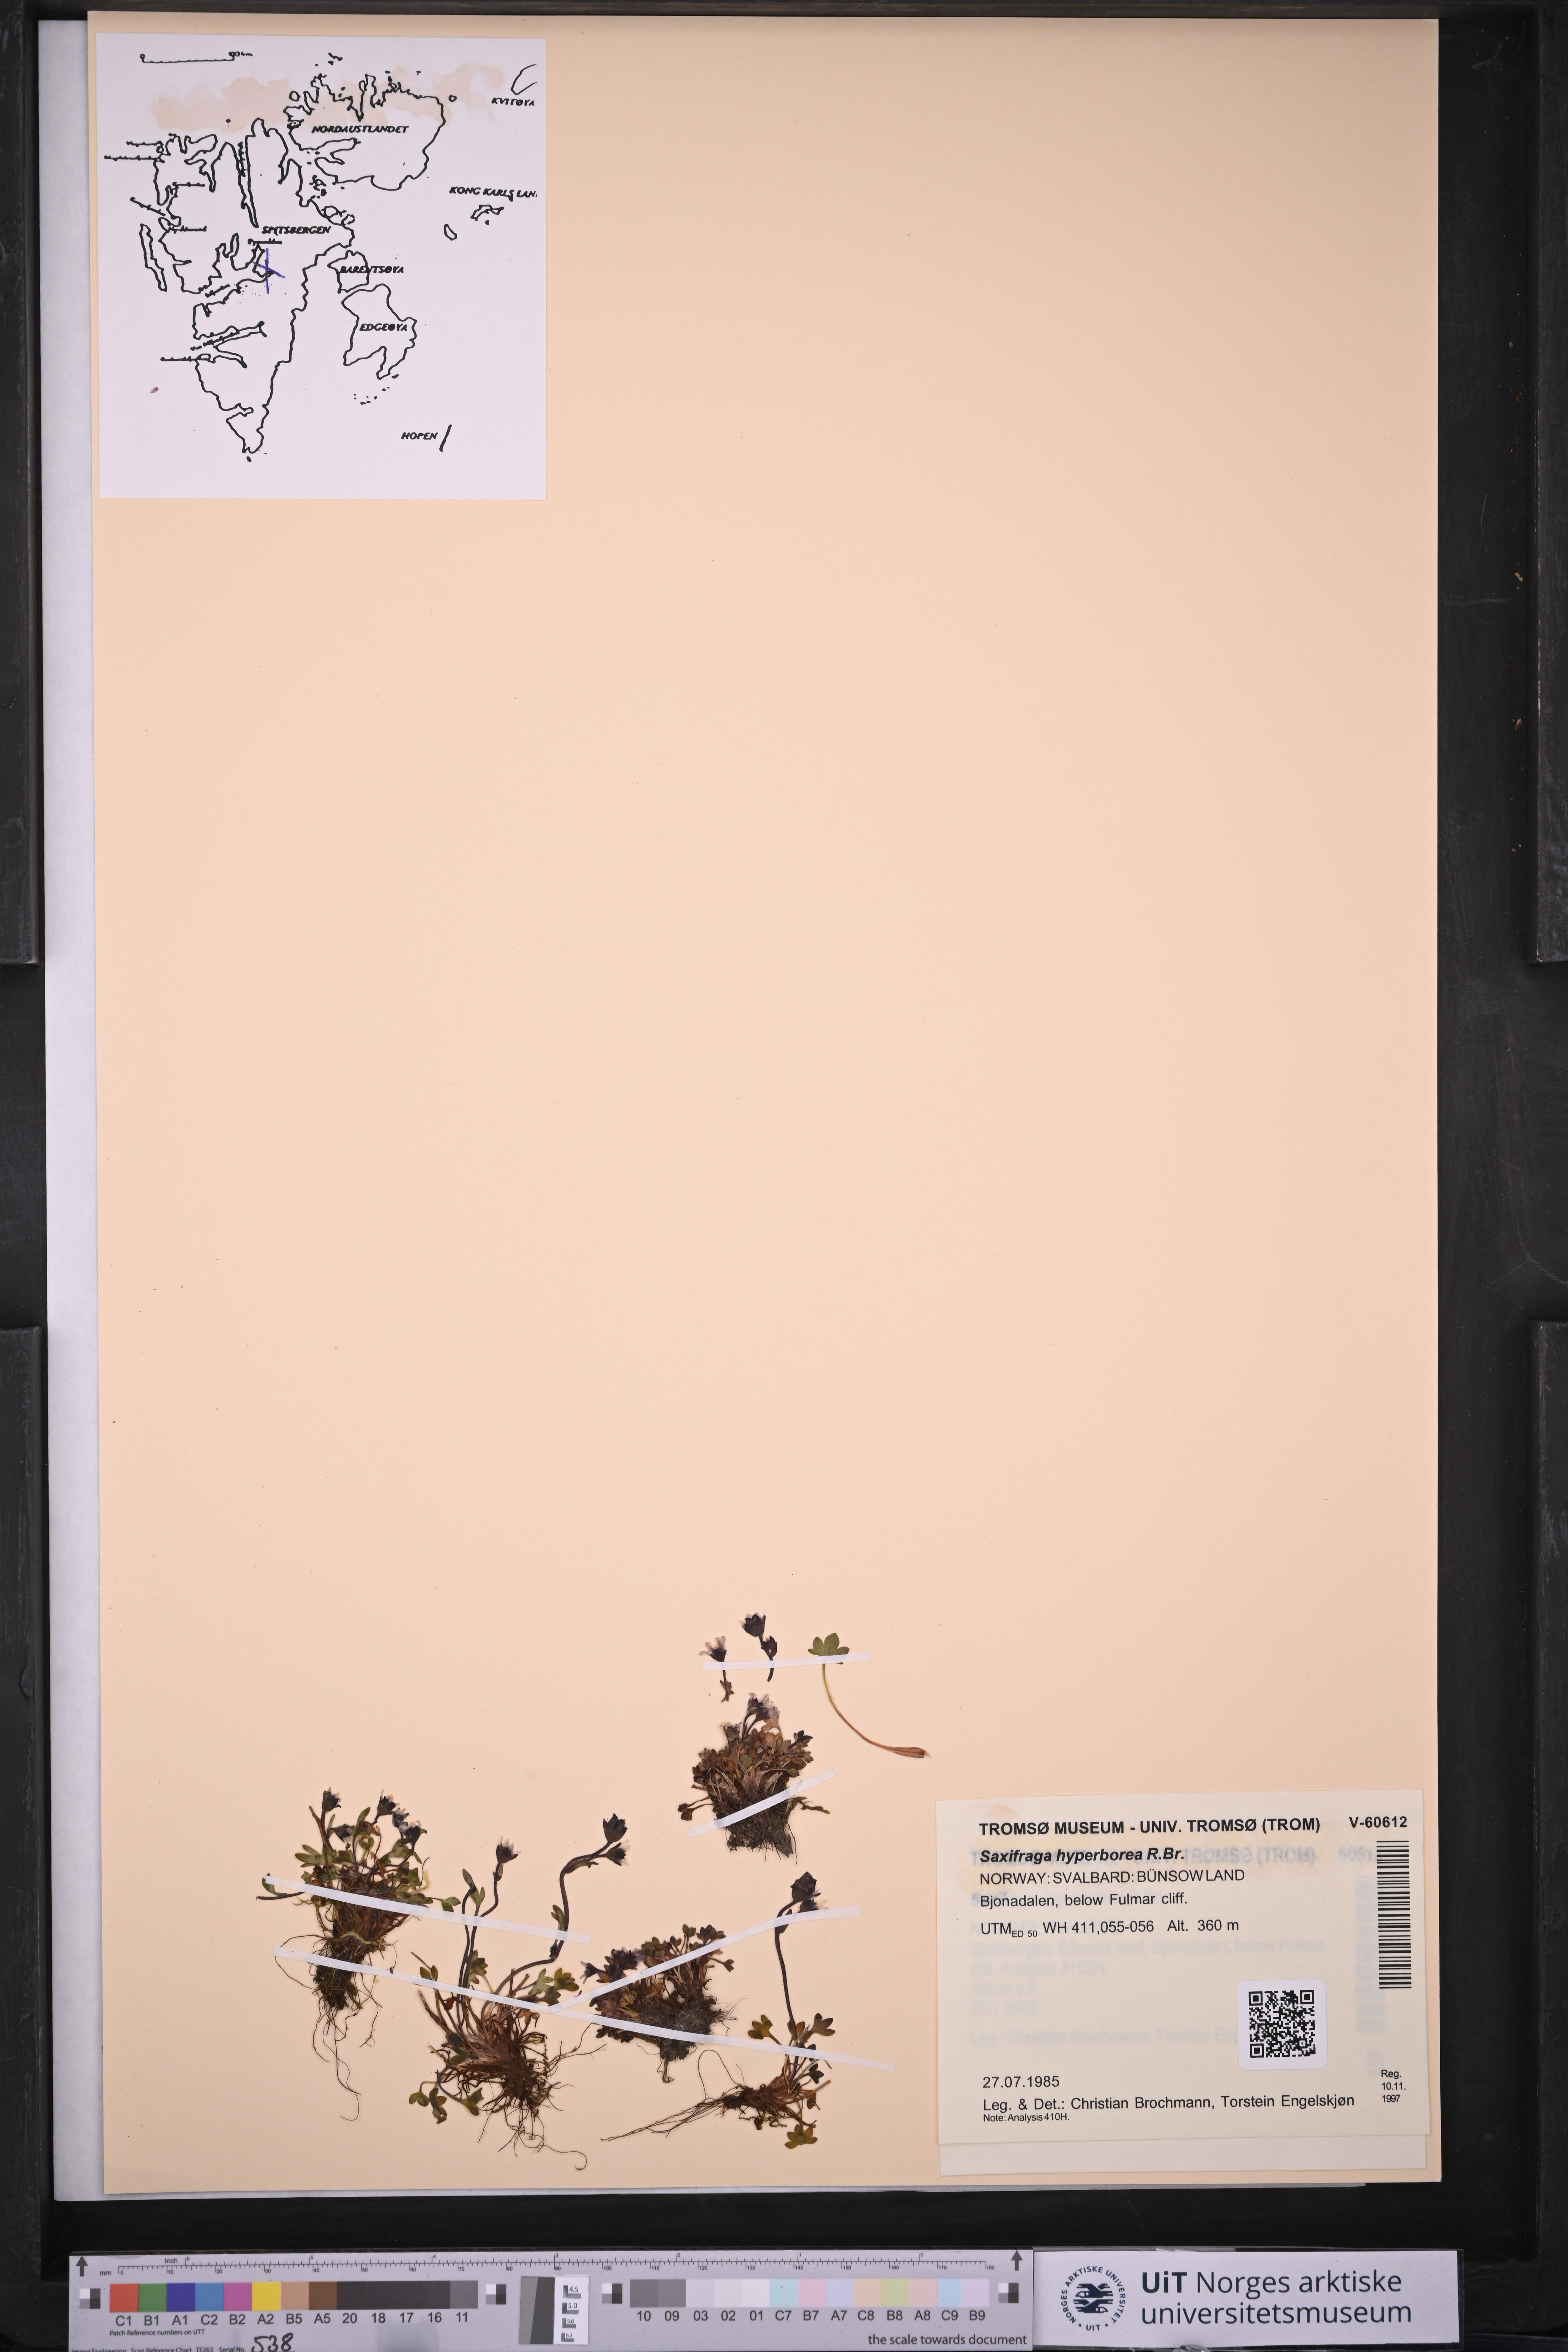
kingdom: Plantae
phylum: Tracheophyta
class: Magnoliopsida
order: Saxifragales
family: Saxifragaceae
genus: Saxifraga
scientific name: Saxifraga hyperborea
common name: Arctic saxifrage
